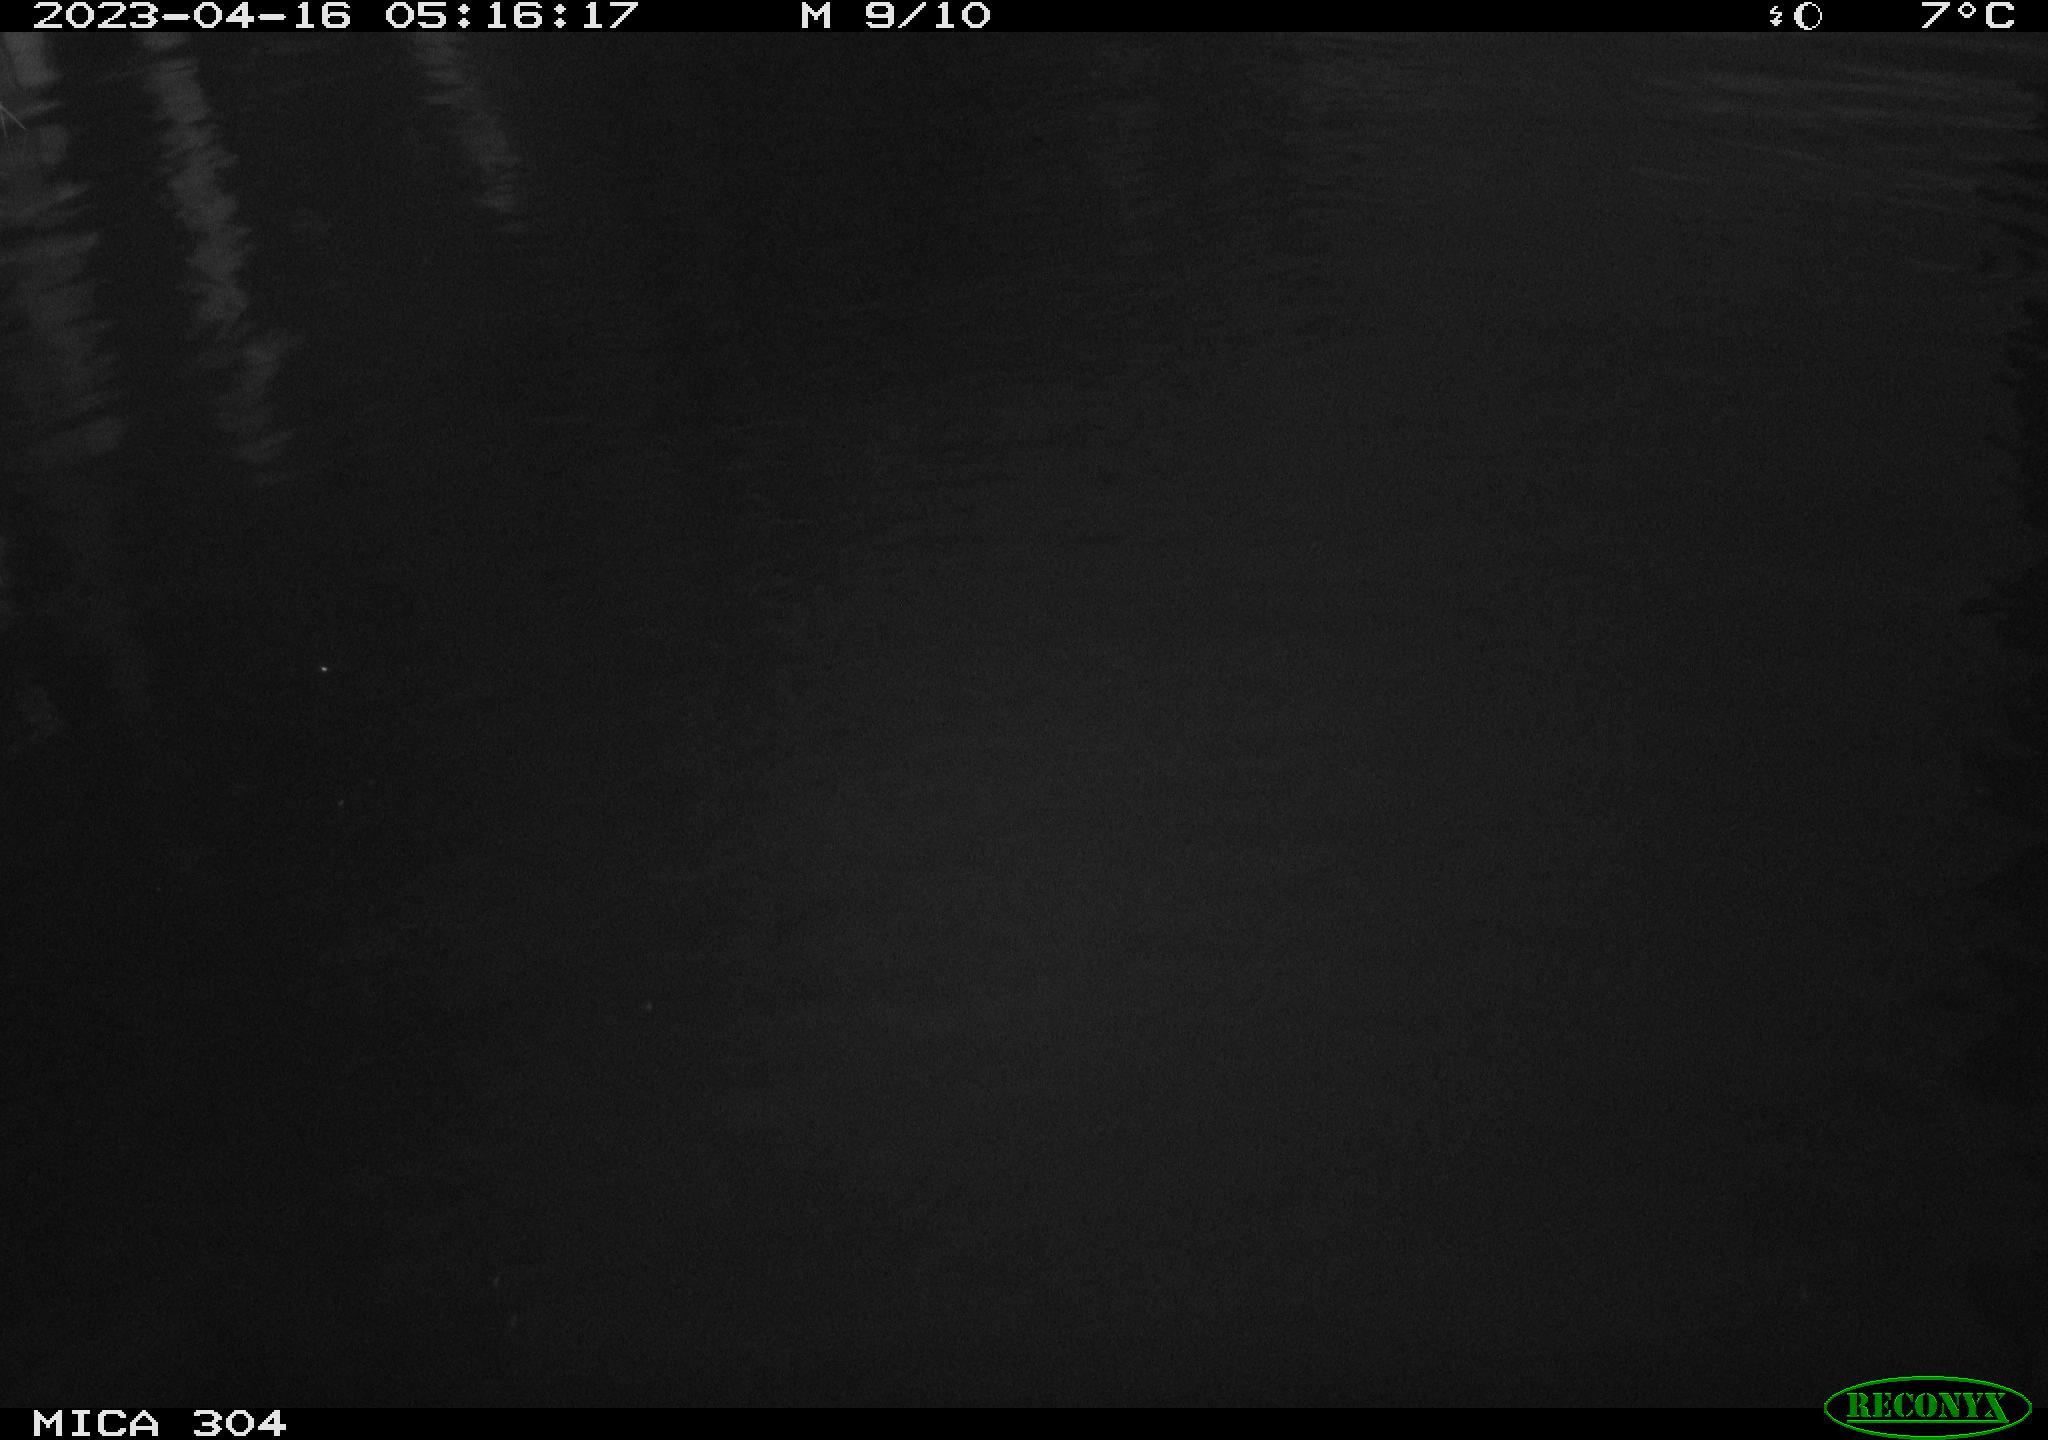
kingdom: Animalia
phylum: Chordata
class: Aves
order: Gruiformes
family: Rallidae
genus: Fulica
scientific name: Fulica atra
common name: Eurasian coot
